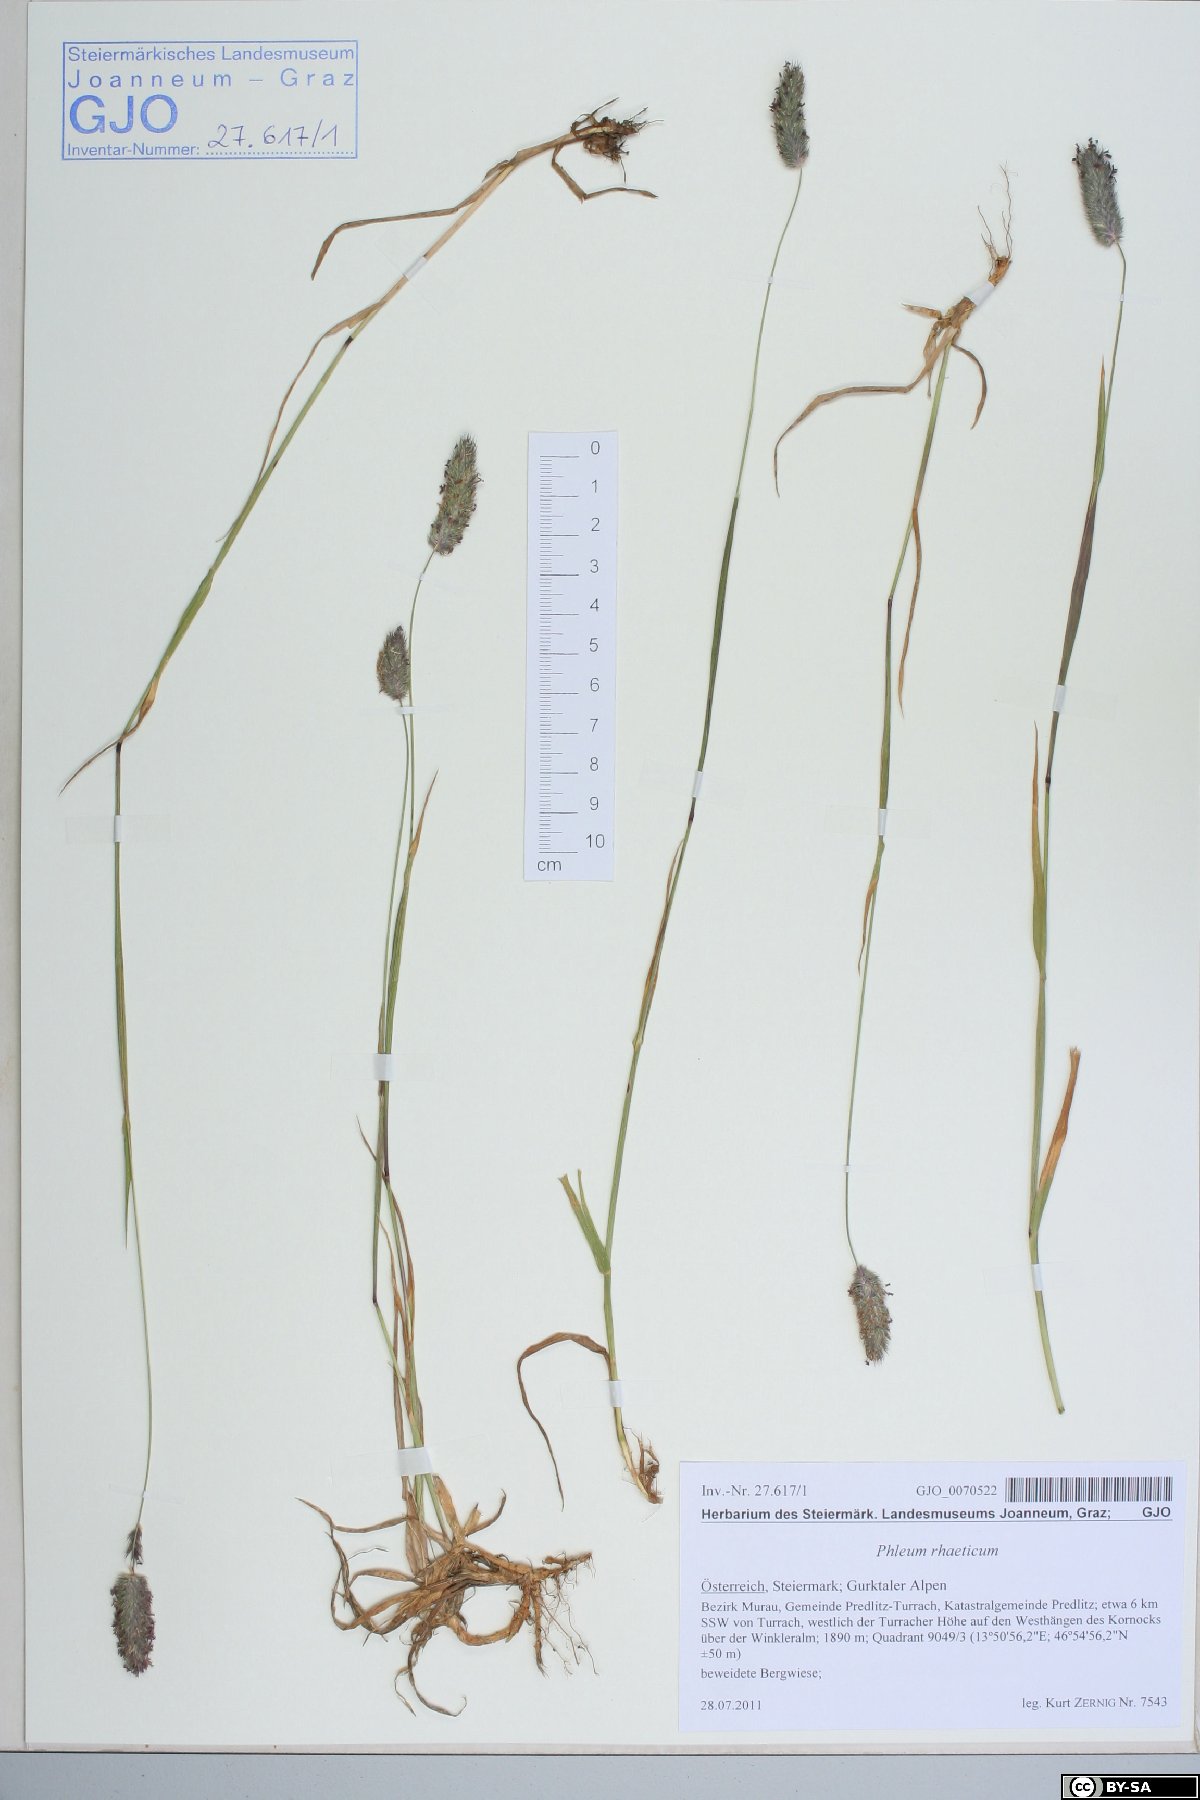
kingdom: Plantae
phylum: Tracheophyta
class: Liliopsida
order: Poales
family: Poaceae
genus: Phleum
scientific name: Phleum alpinum
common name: Alpine cat's-tail
